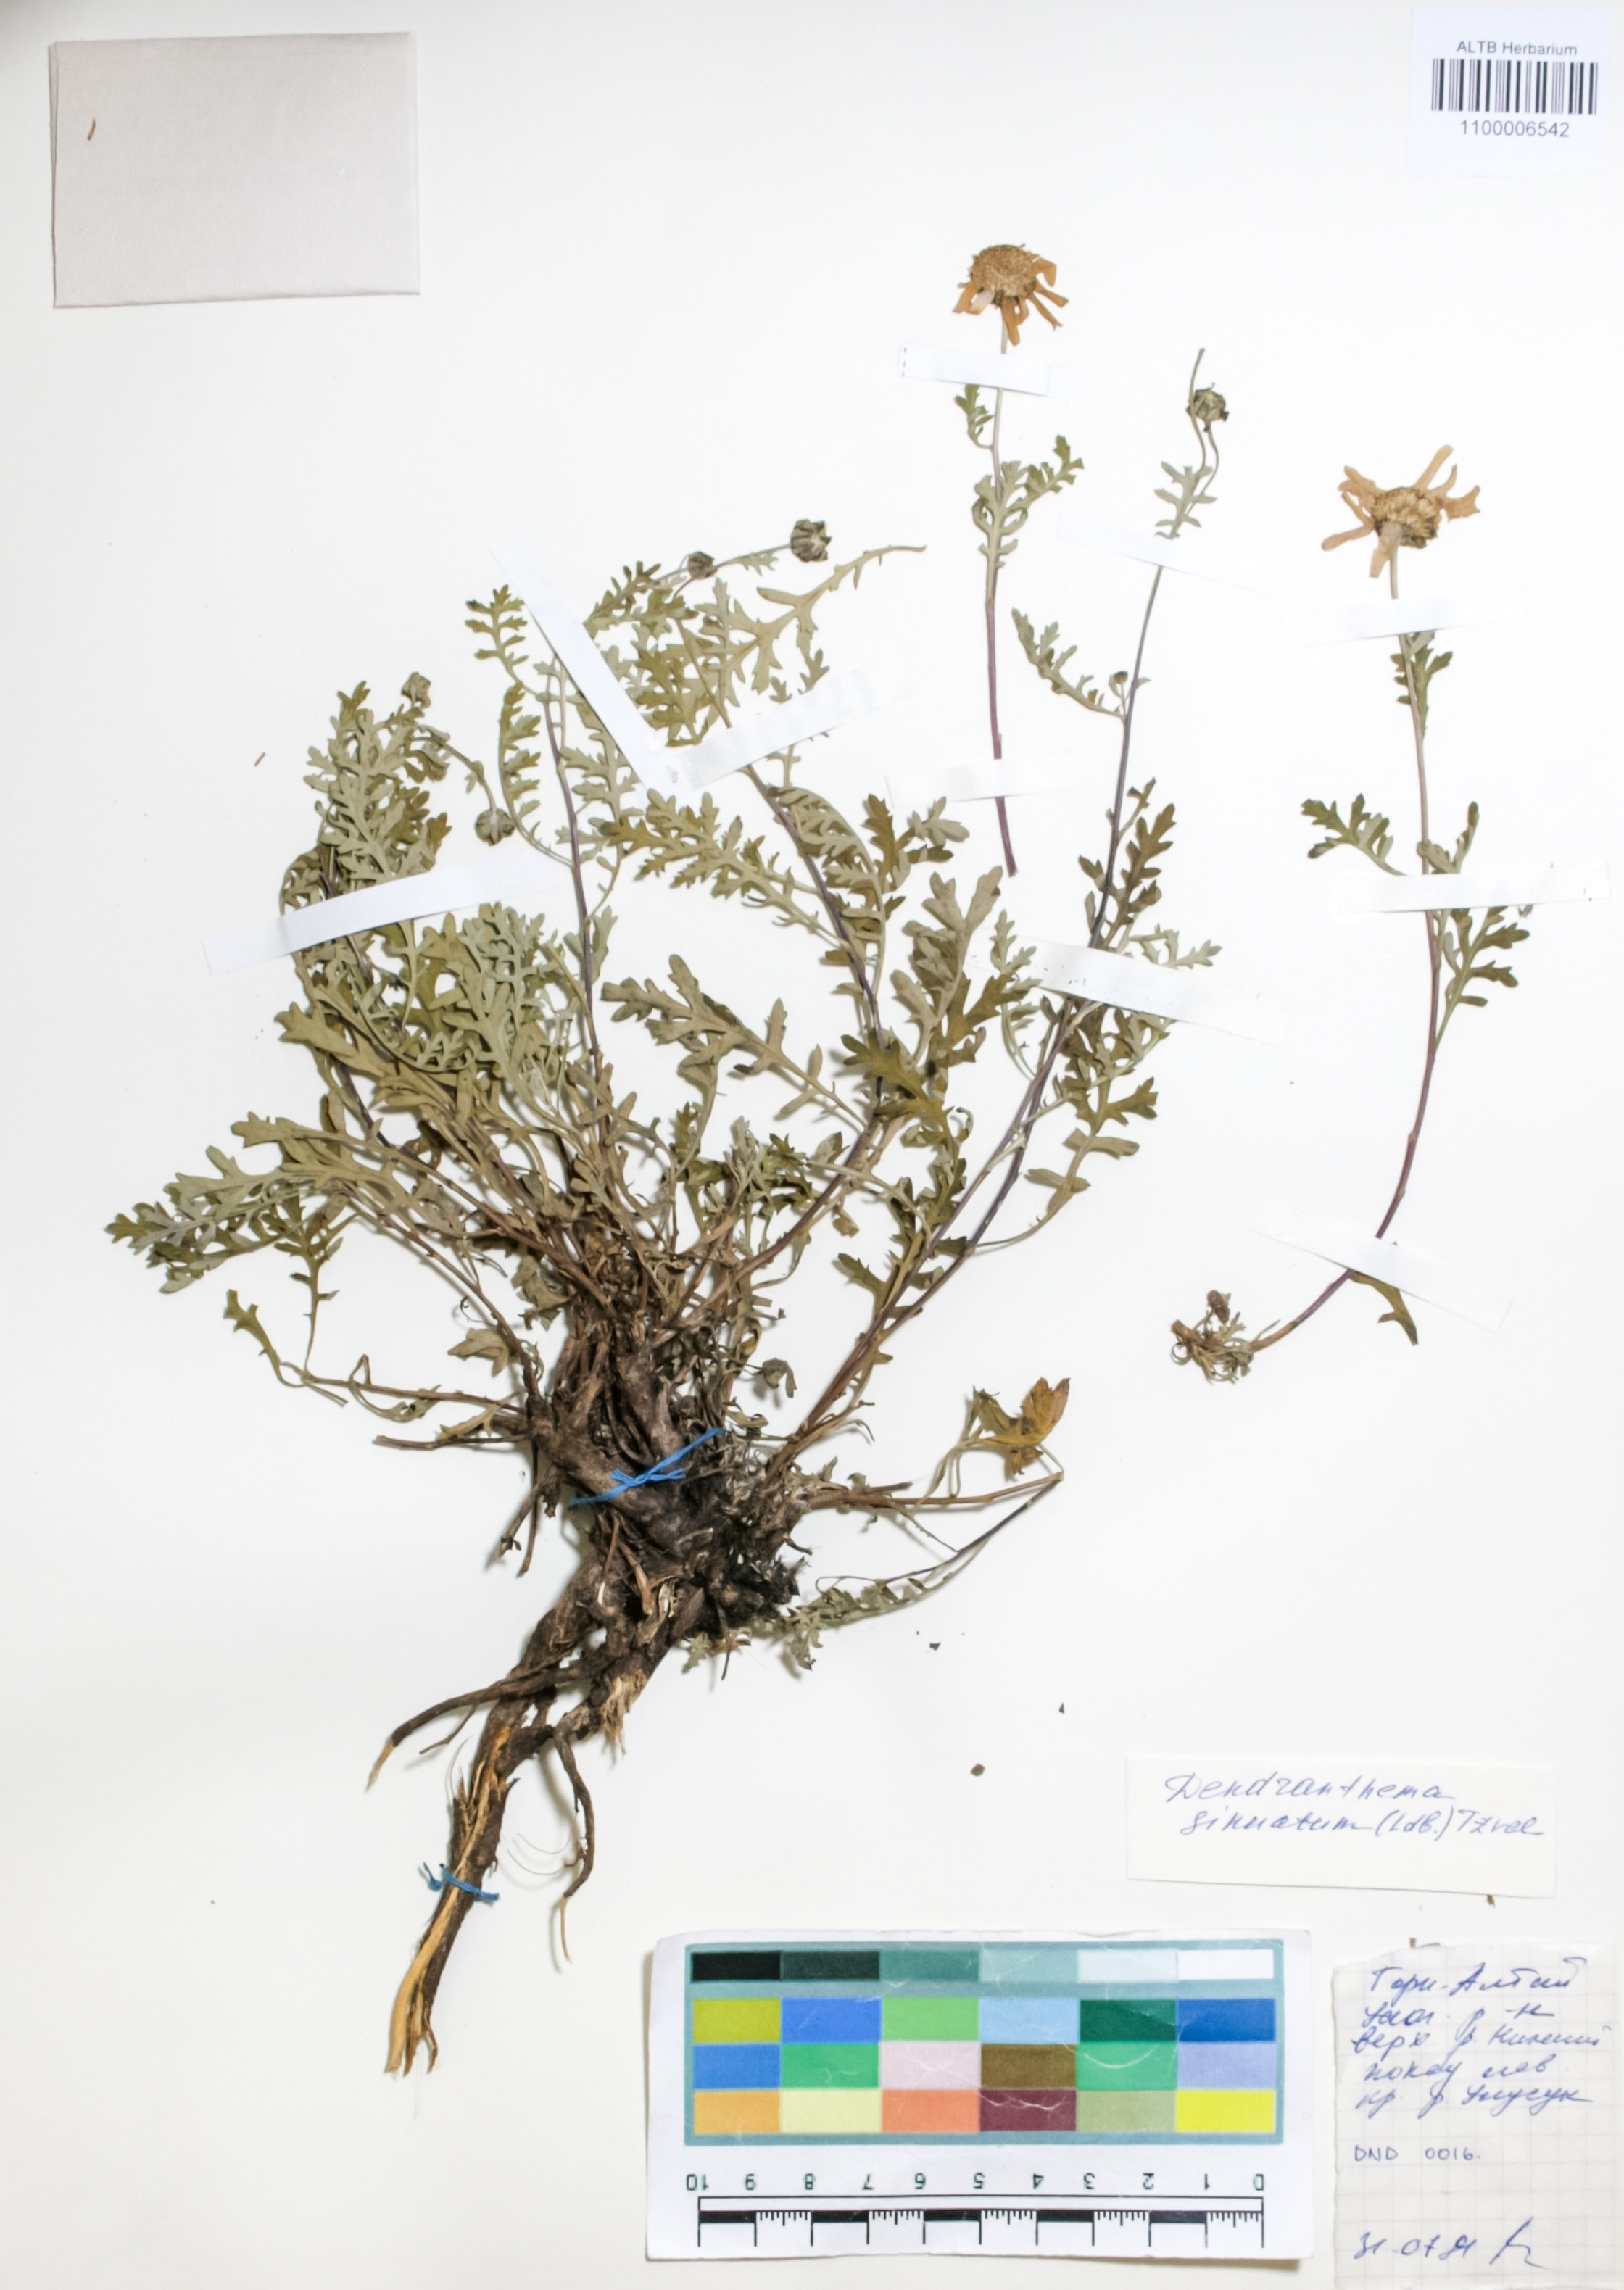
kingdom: Plantae
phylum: Tracheophyta
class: Magnoliopsida
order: Asterales
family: Asteraceae
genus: Chrysanthemum
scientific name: Chrysanthemum sinuatum
